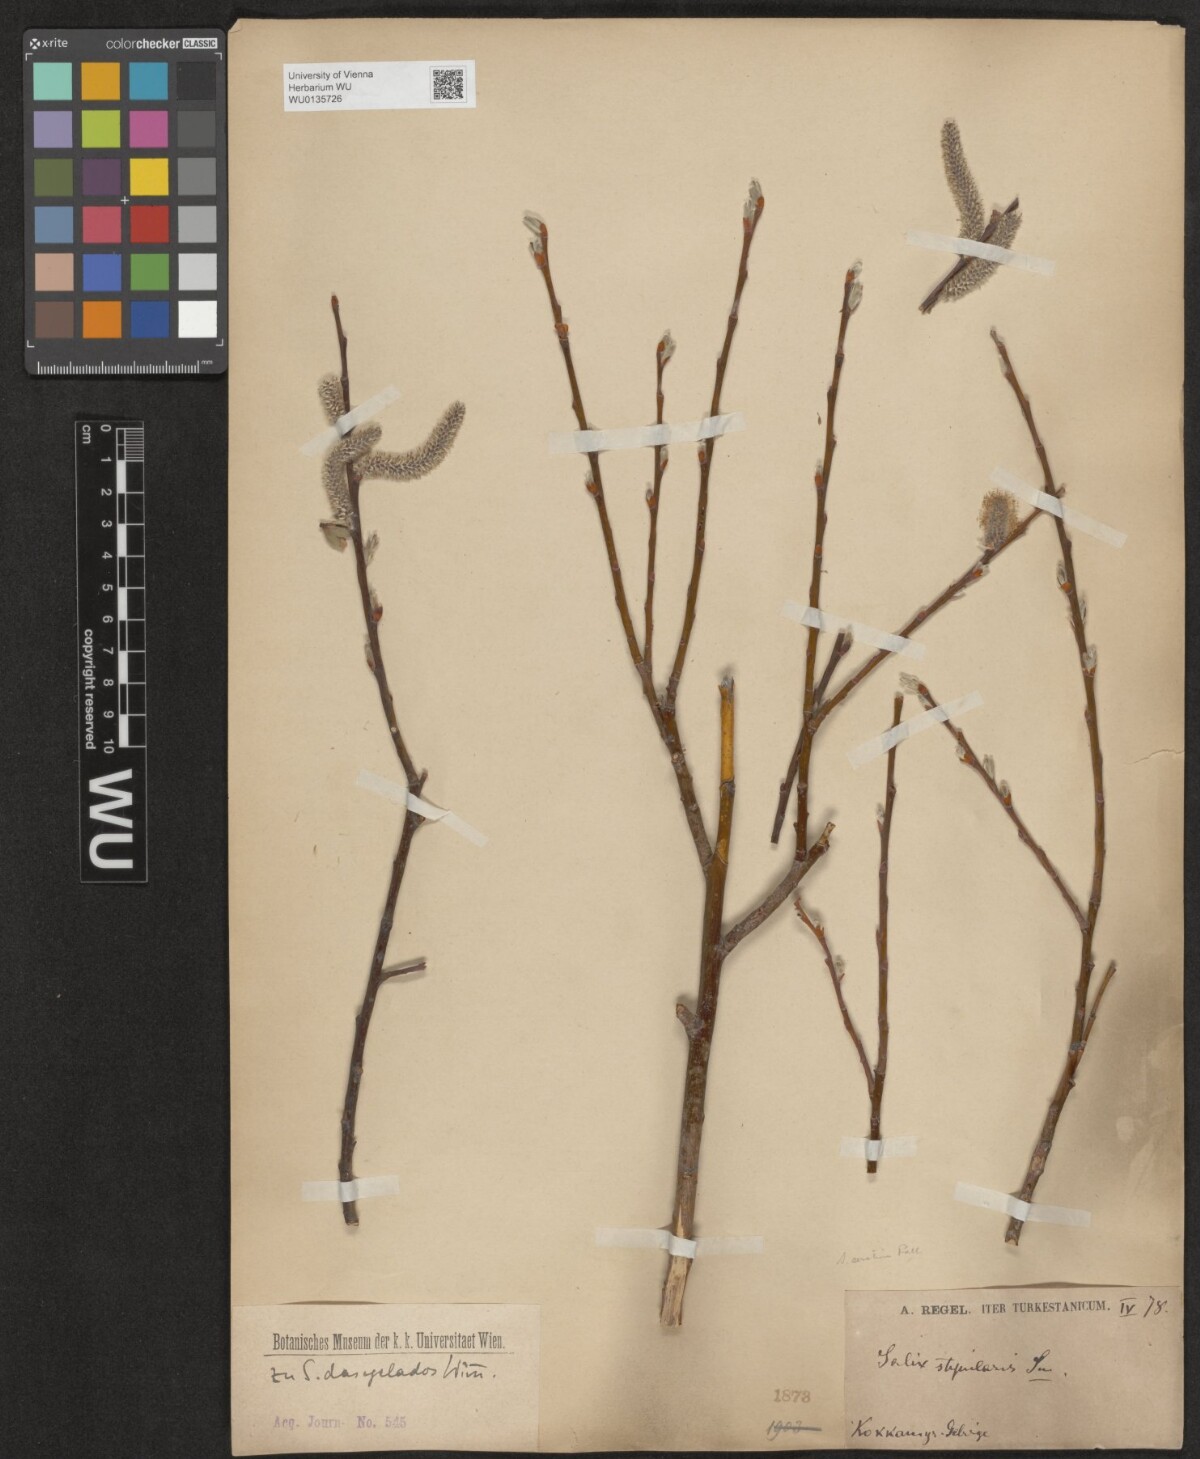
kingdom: Plantae
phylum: Tracheophyta
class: Magnoliopsida
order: Malpighiales
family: Salicaceae
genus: Salix
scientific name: Salix gmelinii
